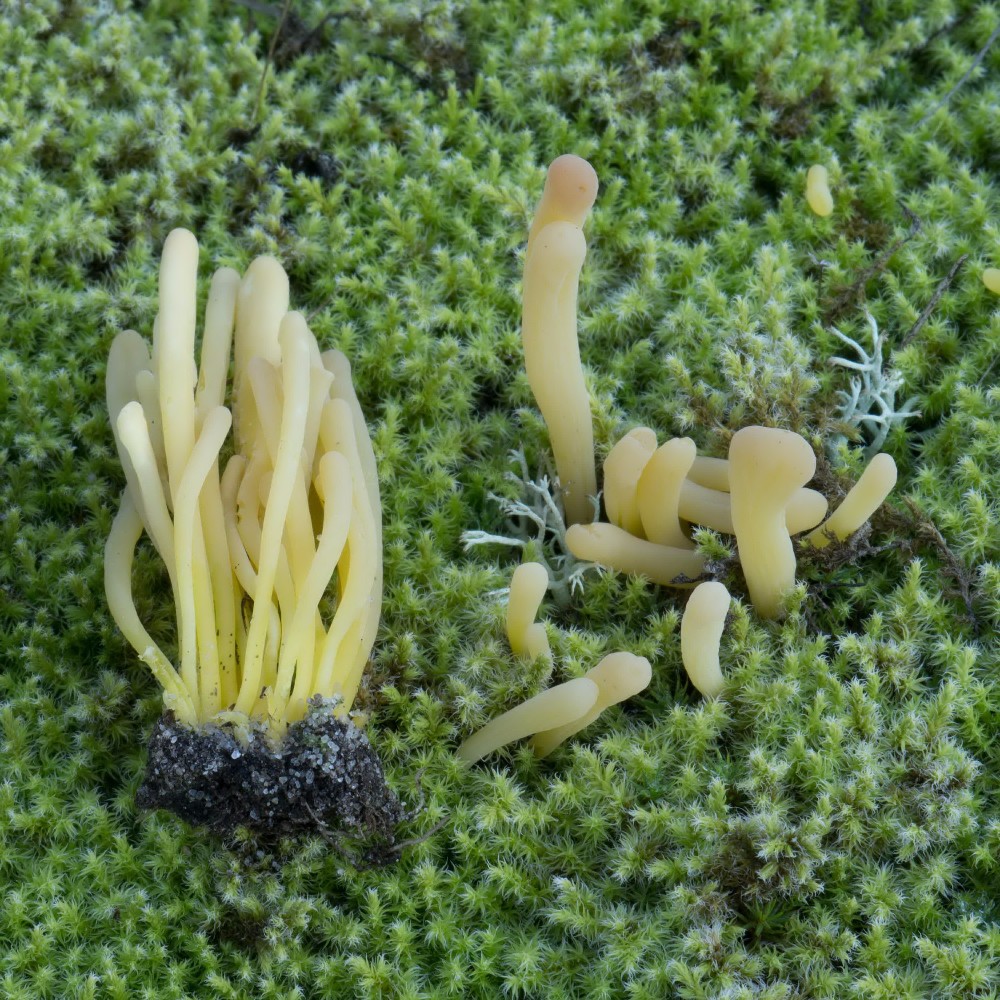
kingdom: Fungi
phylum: Basidiomycota
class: Agaricomycetes
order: Agaricales
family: Clavariaceae
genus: Clavaria
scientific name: Clavaria argillacea
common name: lerfarvet køllesvamp
